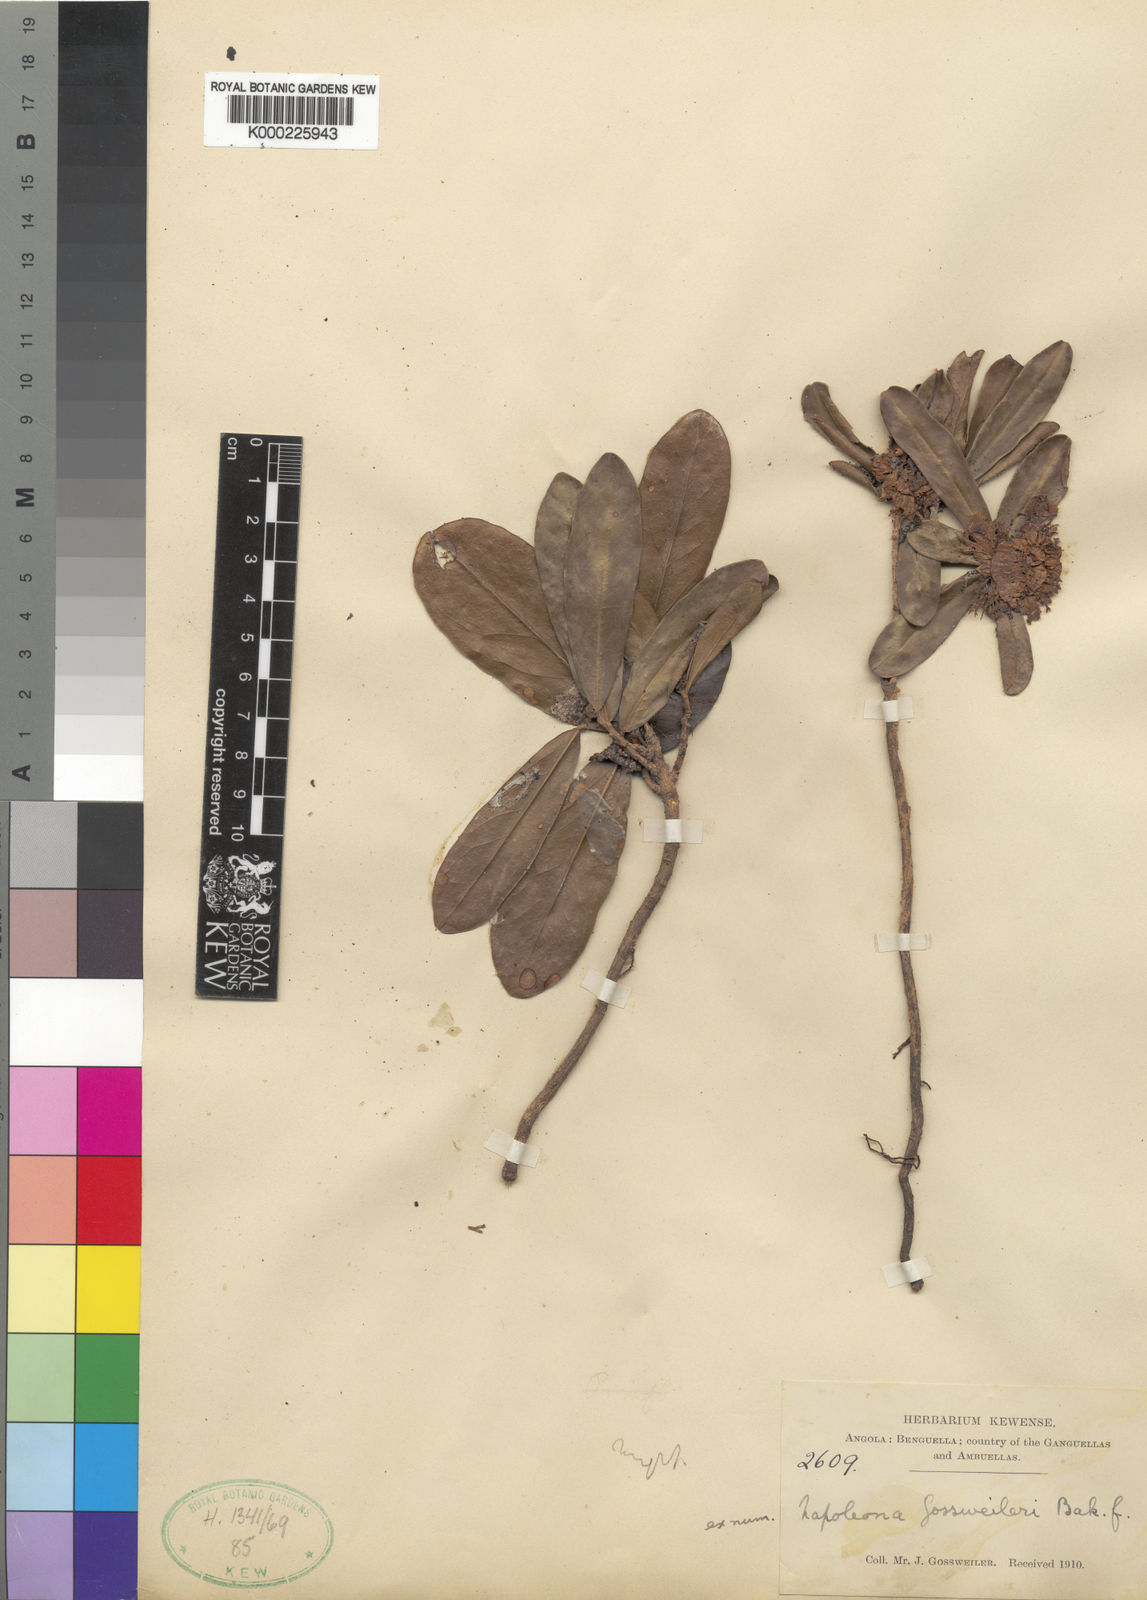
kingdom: Plantae
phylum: Tracheophyta
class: Magnoliopsida
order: Ericales
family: Lecythidaceae
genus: Napoleonaea
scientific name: Napoleonaea gossweileri
